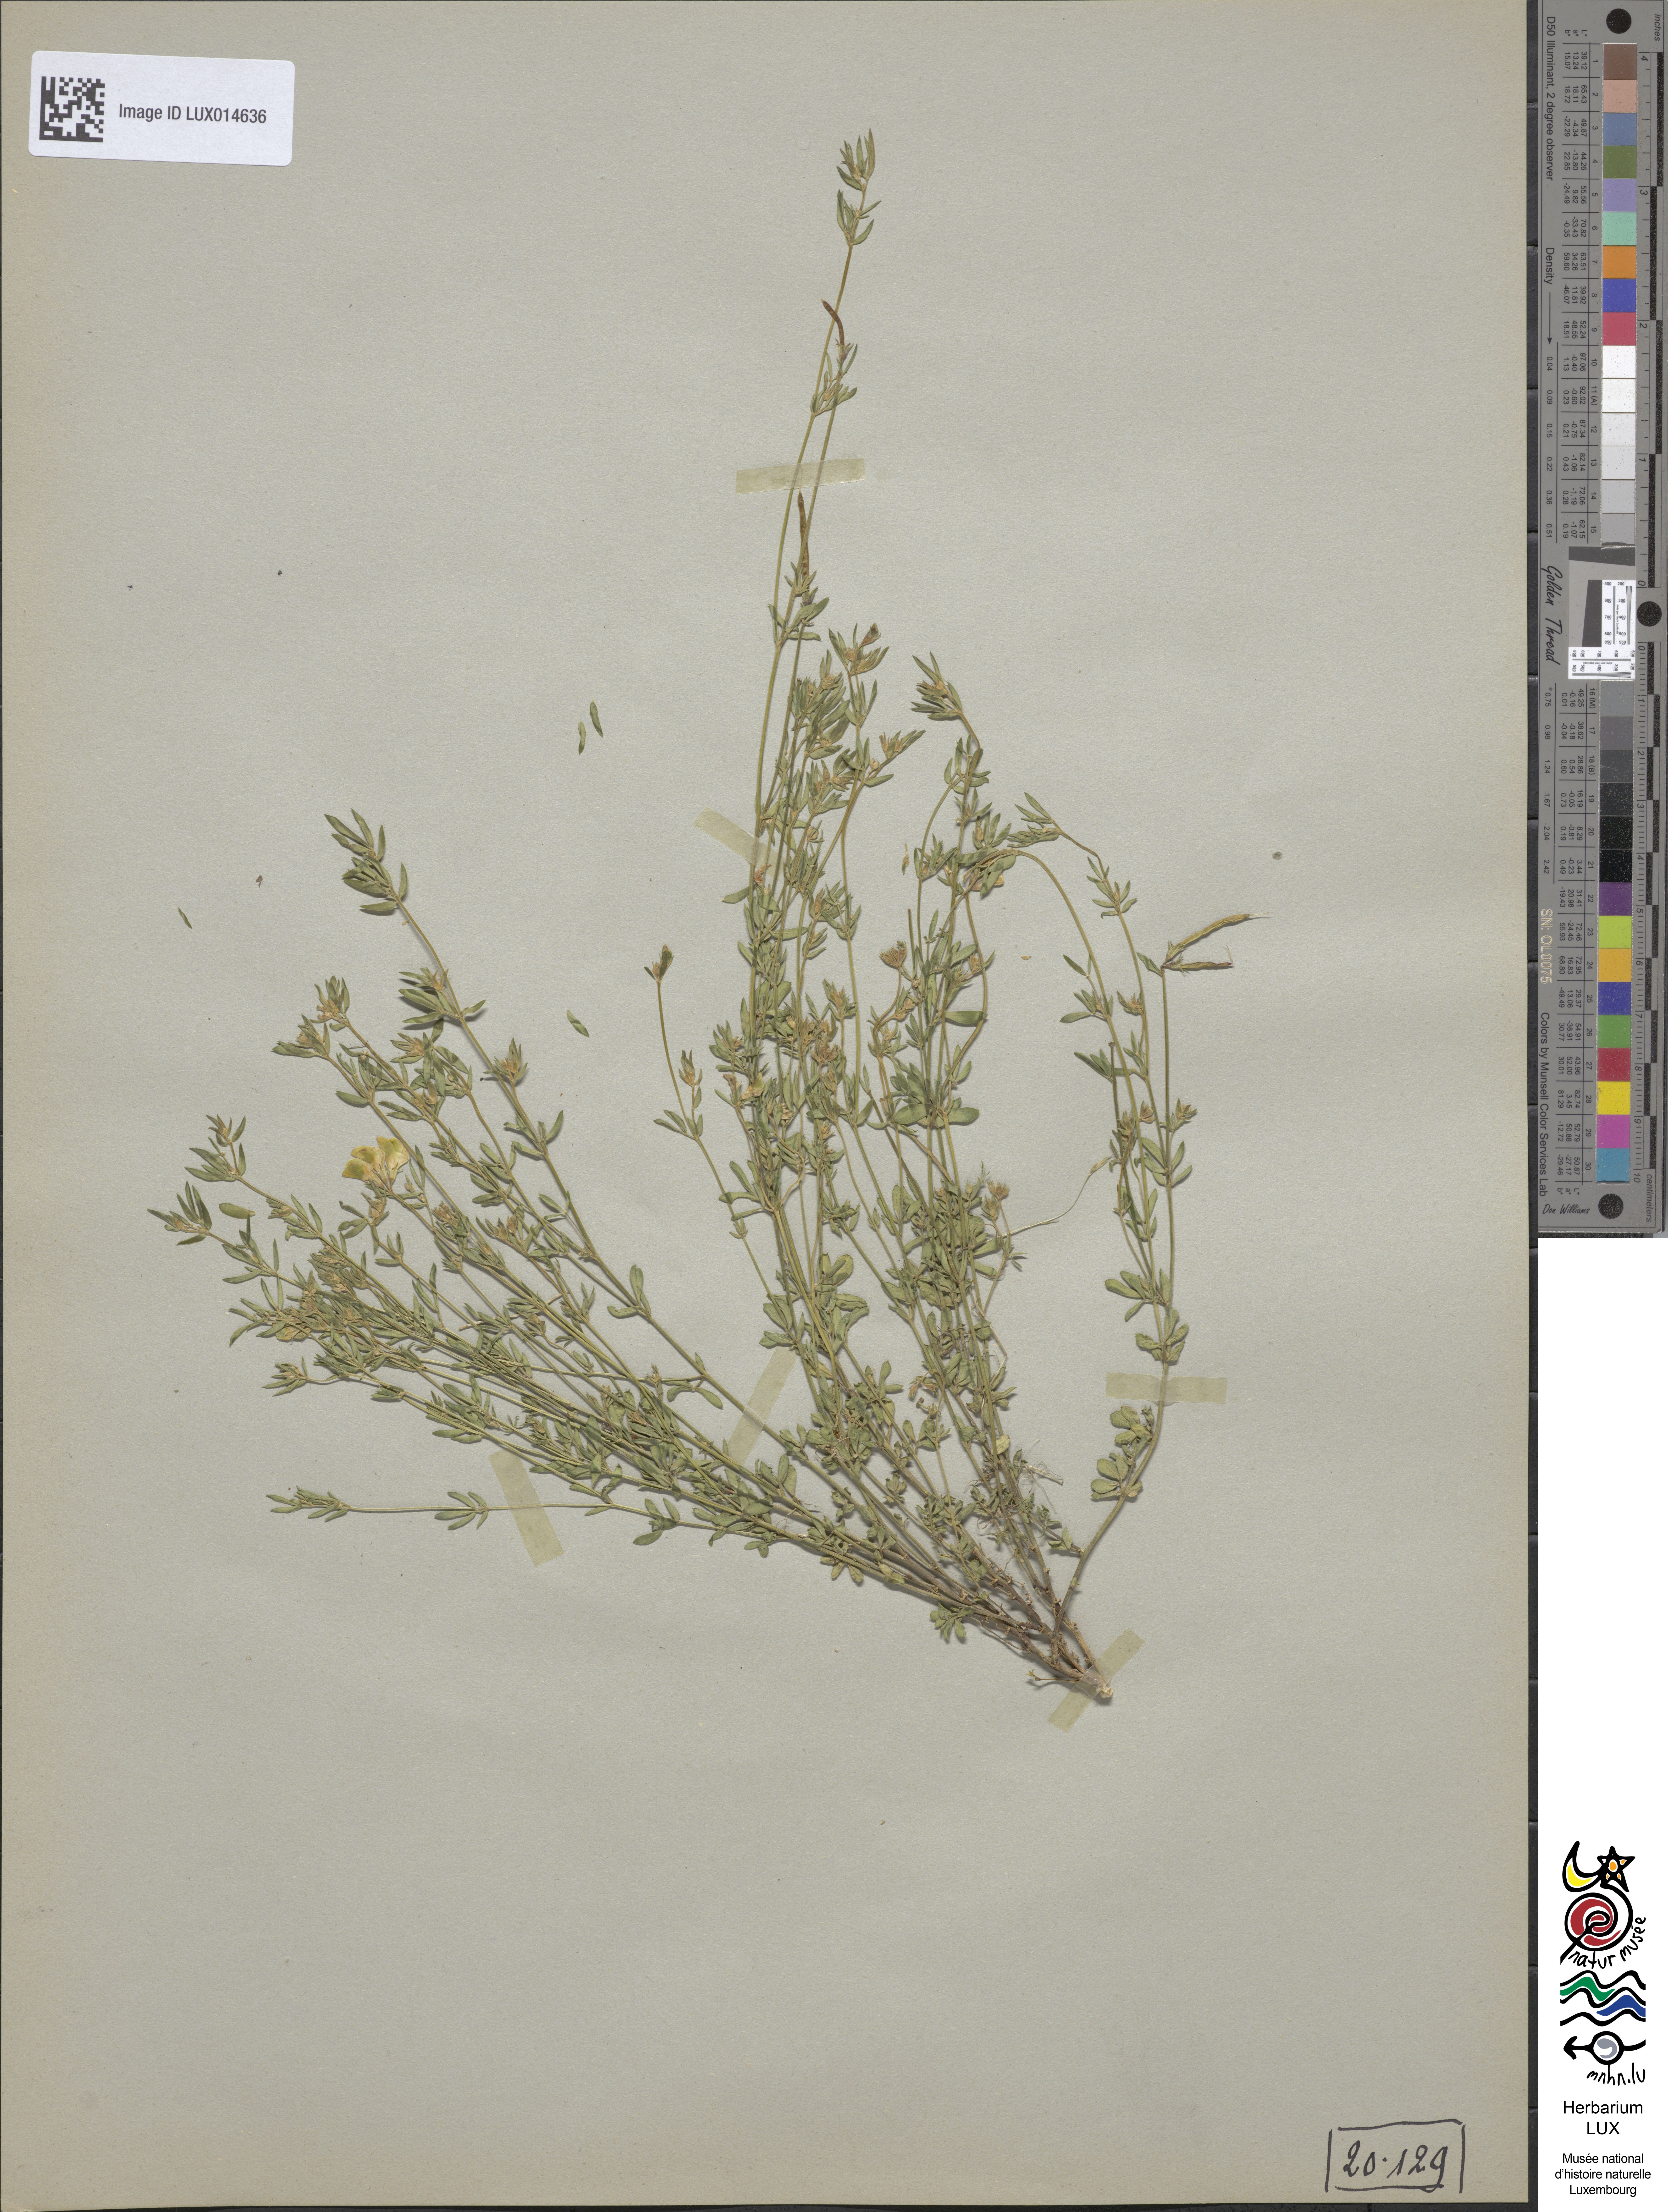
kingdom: Plantae
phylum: Tracheophyta
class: Magnoliopsida
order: Fabales
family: Fabaceae
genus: Lotus
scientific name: Lotus tenuis
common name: Narrow-leaved bird's-foot-trefoil
